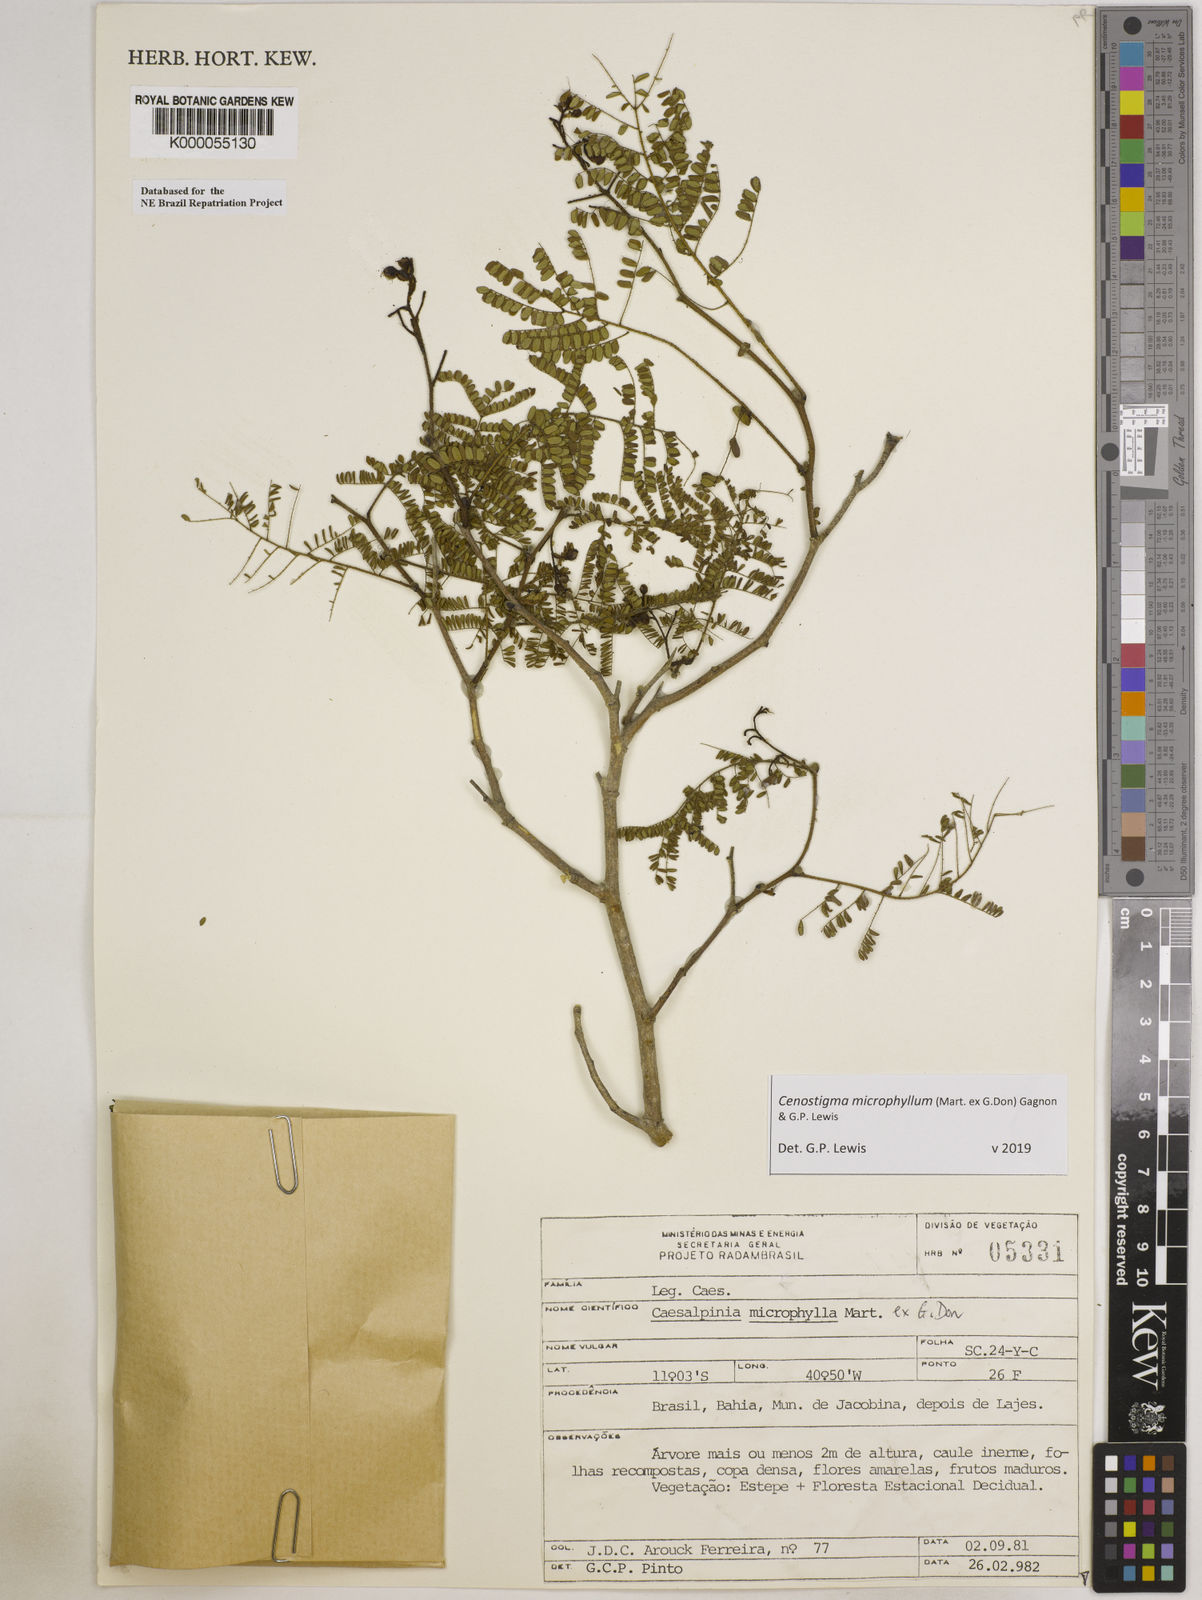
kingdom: Plantae
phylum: Tracheophyta
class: Magnoliopsida
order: Fabales
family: Fabaceae
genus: Cenostigma
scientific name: Cenostigma microphyllum
